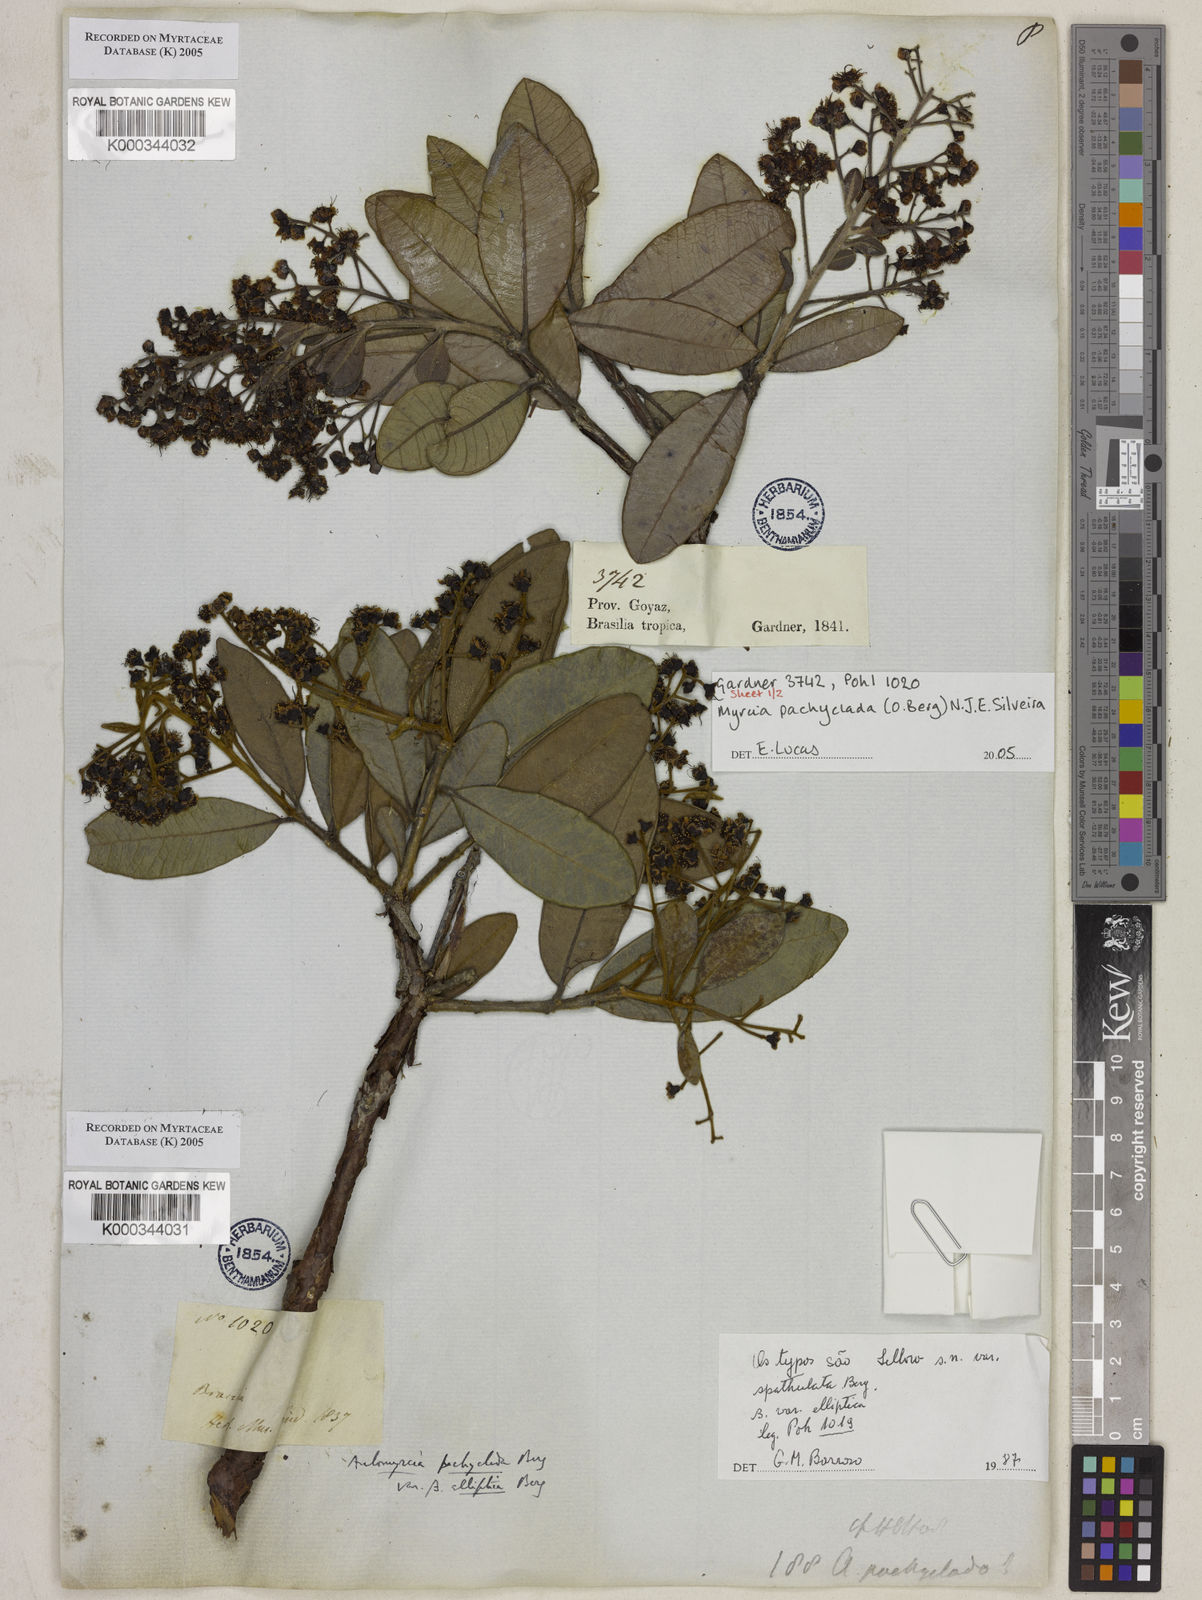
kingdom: Plantae
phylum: Tracheophyta
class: Magnoliopsida
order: Myrtales
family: Myrtaceae
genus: Myrcia
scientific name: Myrcia vestita
